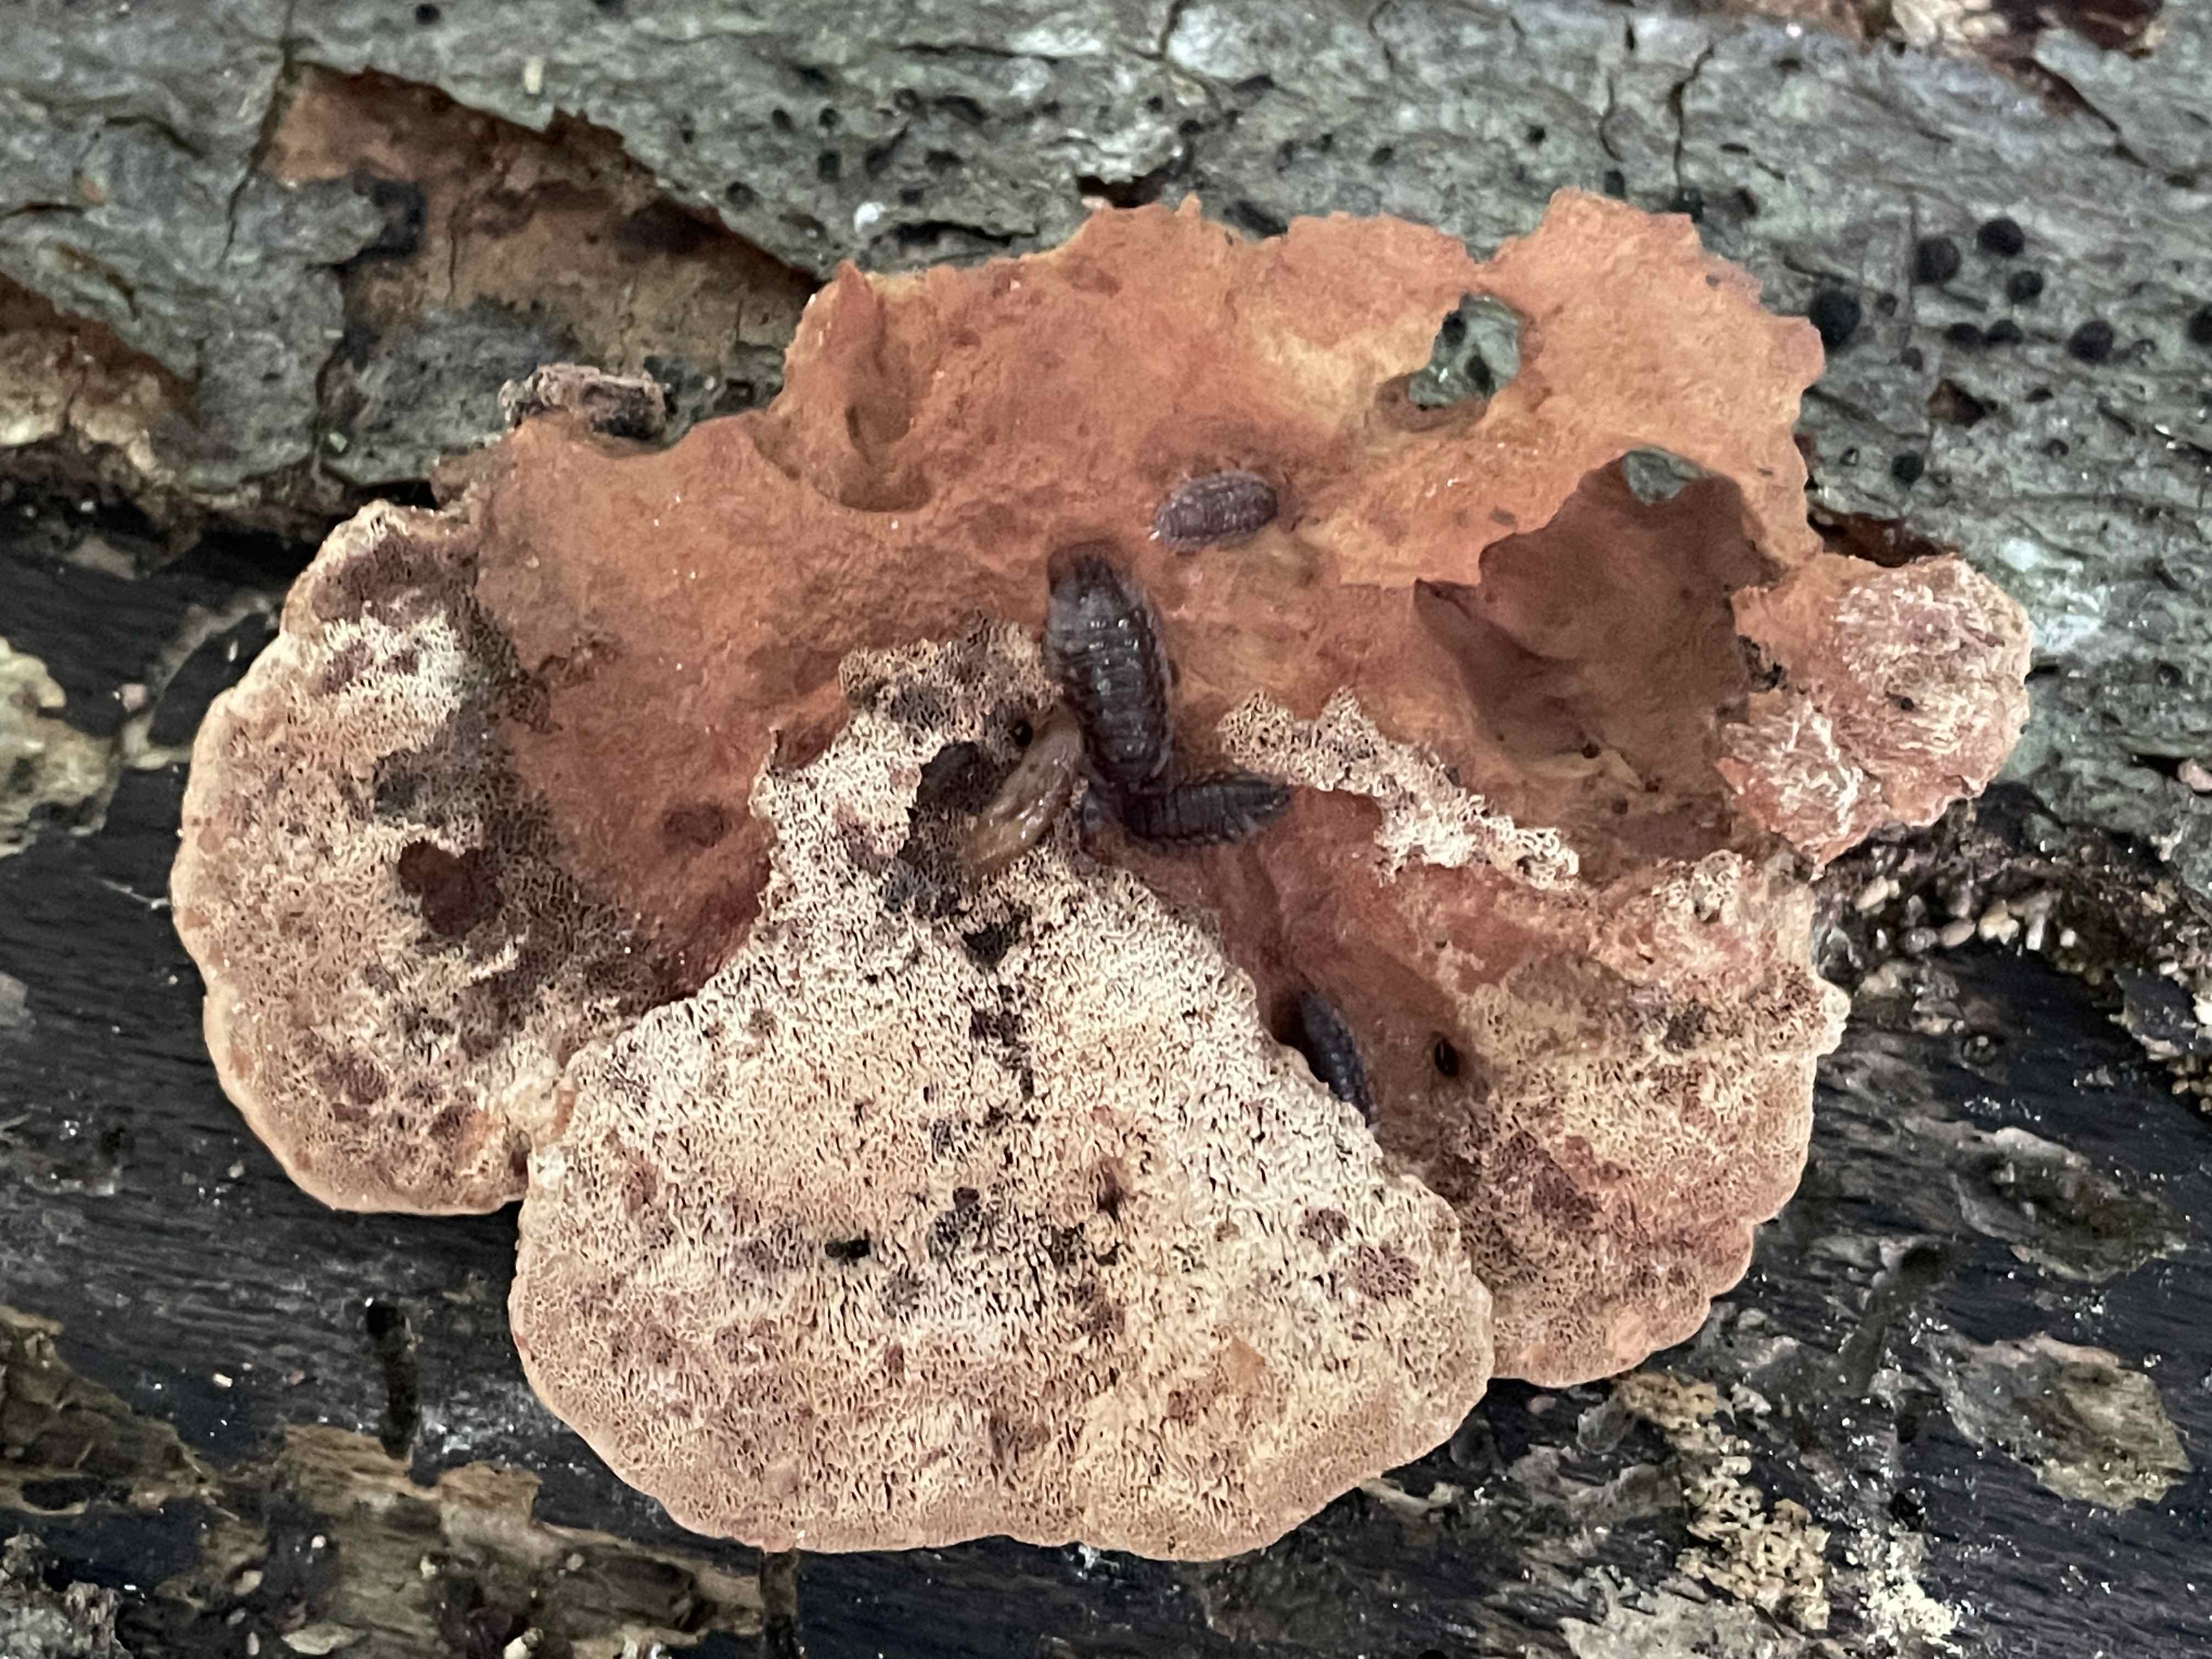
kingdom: Fungi
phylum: Basidiomycota
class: Agaricomycetes
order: Polyporales
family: Phanerochaetaceae
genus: Hapalopilus
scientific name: Hapalopilus rutilans
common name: rødlig okkerporesvamp
